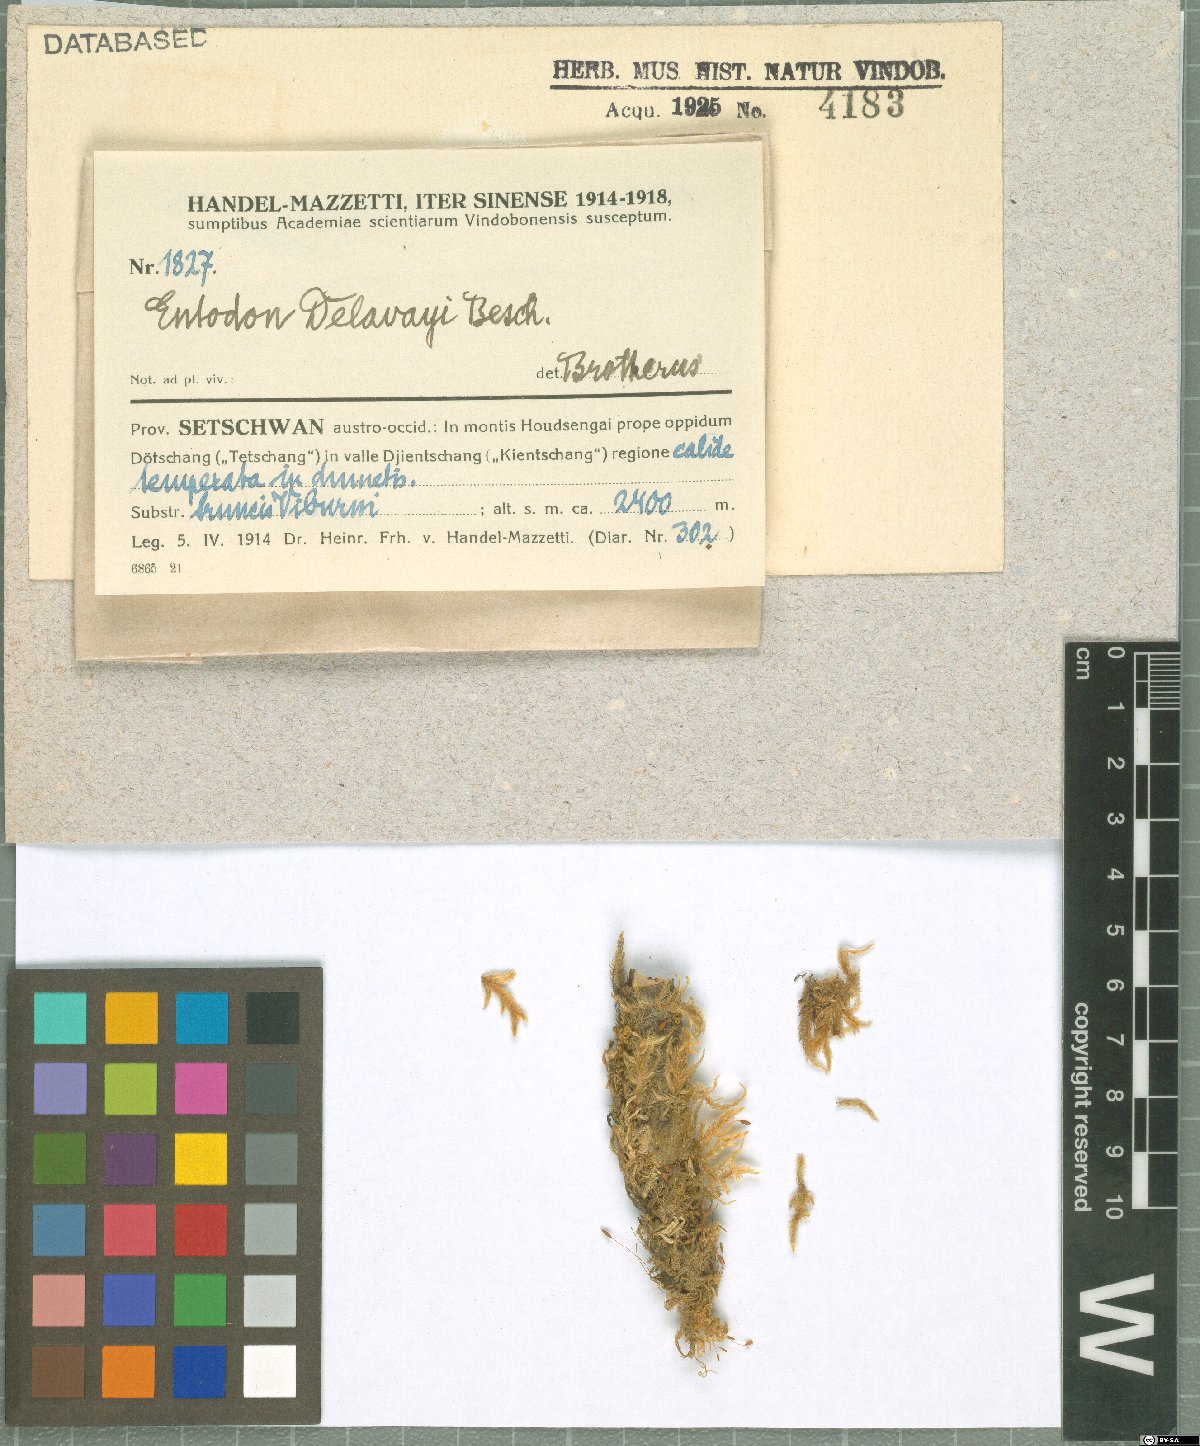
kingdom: Plantae
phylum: Bryophyta
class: Bryopsida
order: Hypnales
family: Entodontaceae
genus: Entodon
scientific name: Entodon macropodus
